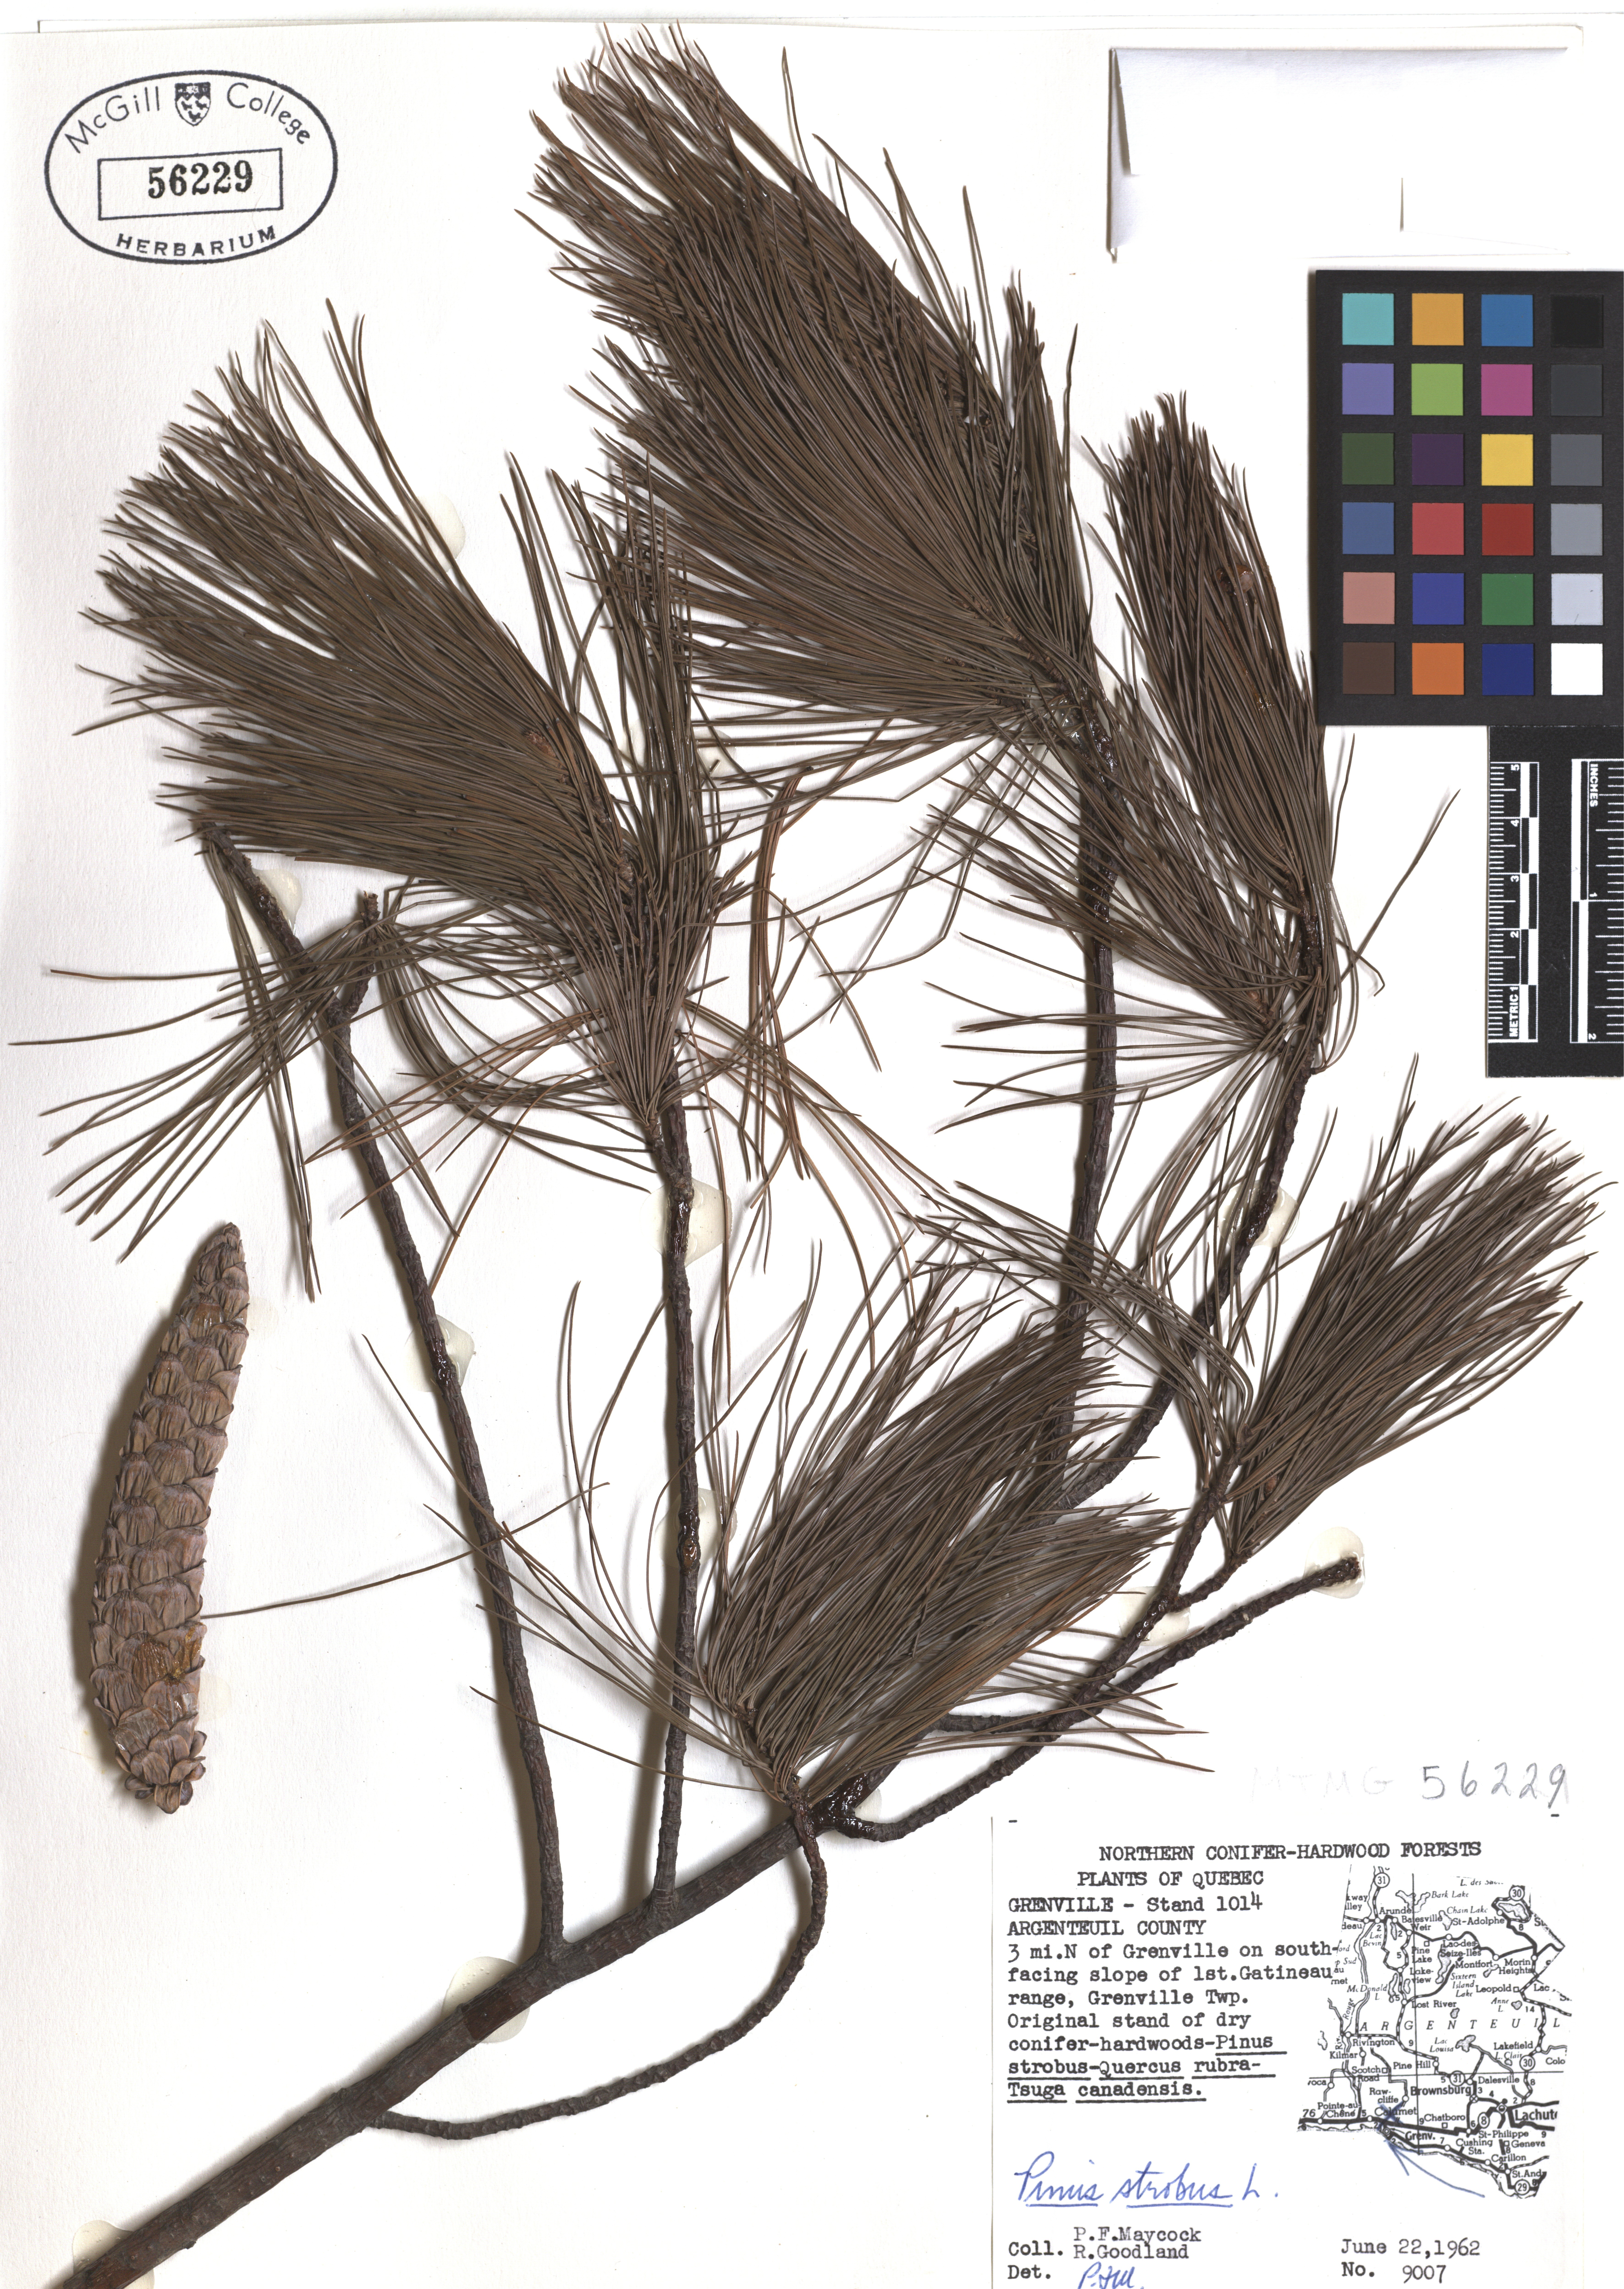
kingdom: Plantae
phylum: Tracheophyta
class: Pinopsida
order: Pinales
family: Pinaceae
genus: Pinus
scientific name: Pinus strobus
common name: Weymouth pine
